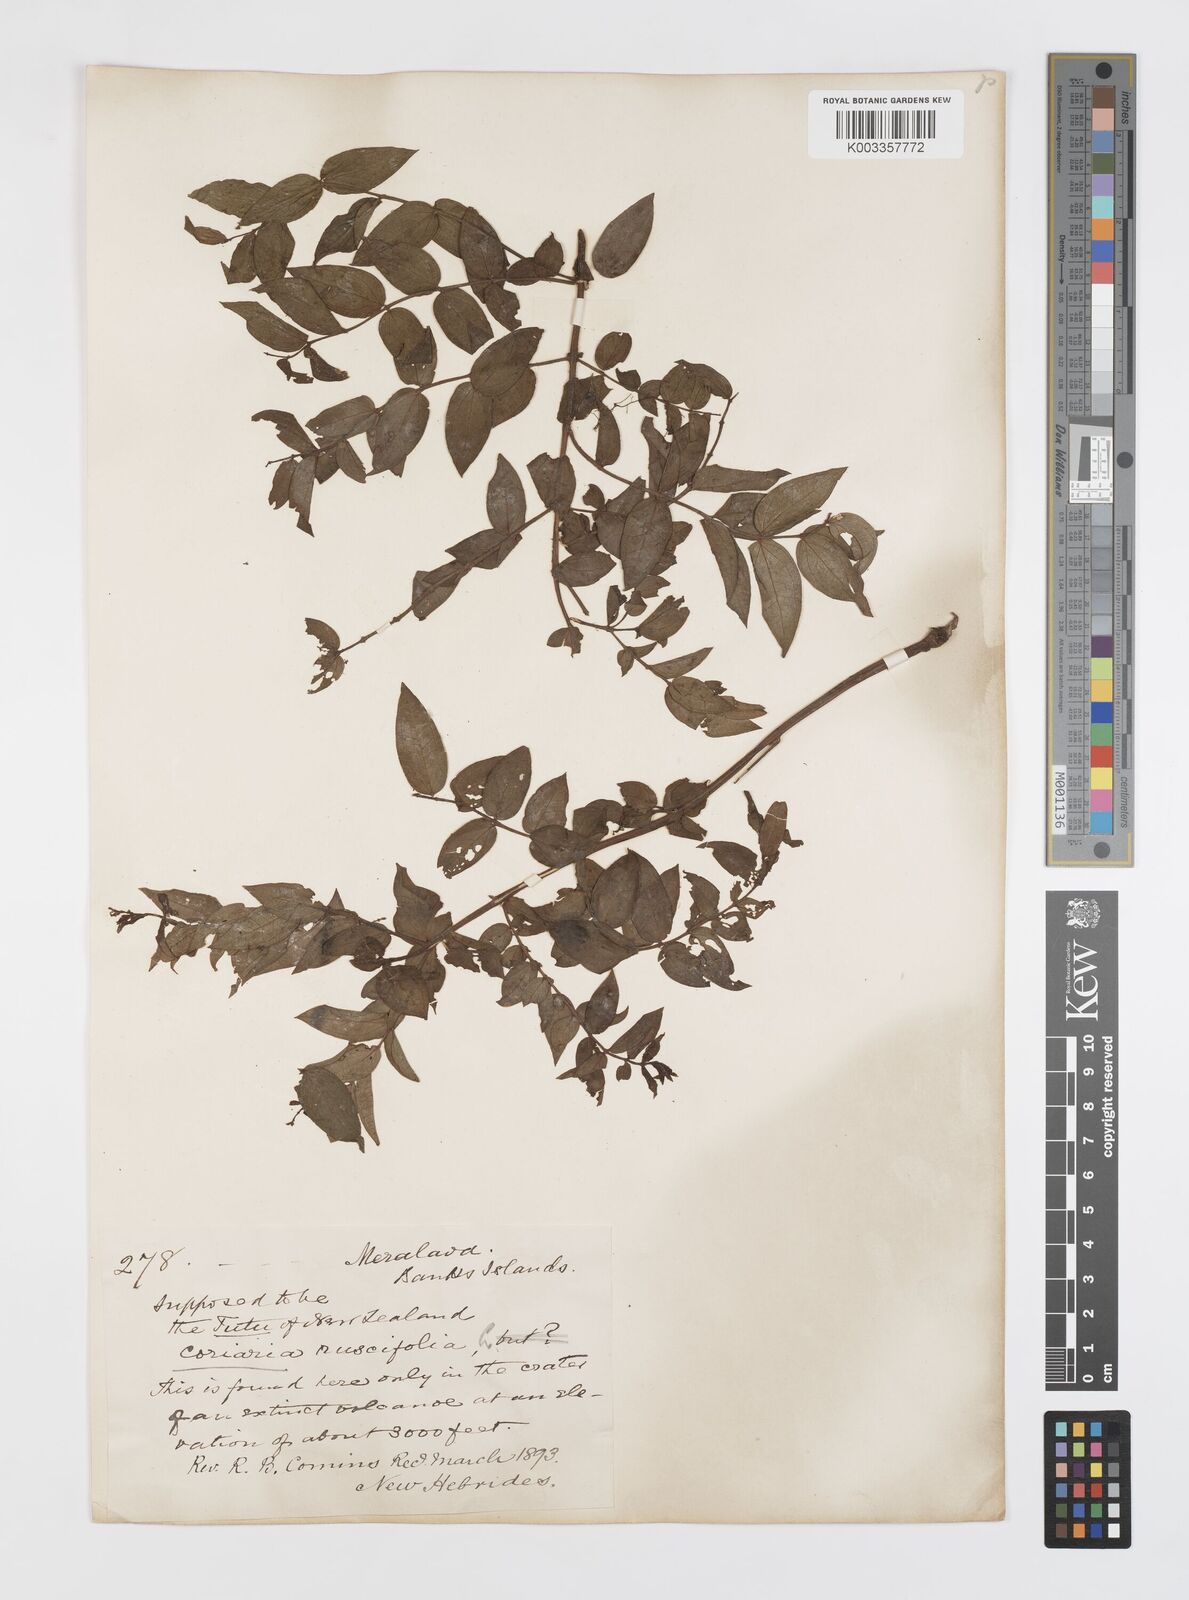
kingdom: Plantae
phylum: Tracheophyta
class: Magnoliopsida
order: Cucurbitales
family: Coriariaceae
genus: Coriaria
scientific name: Coriaria ruscifolia
